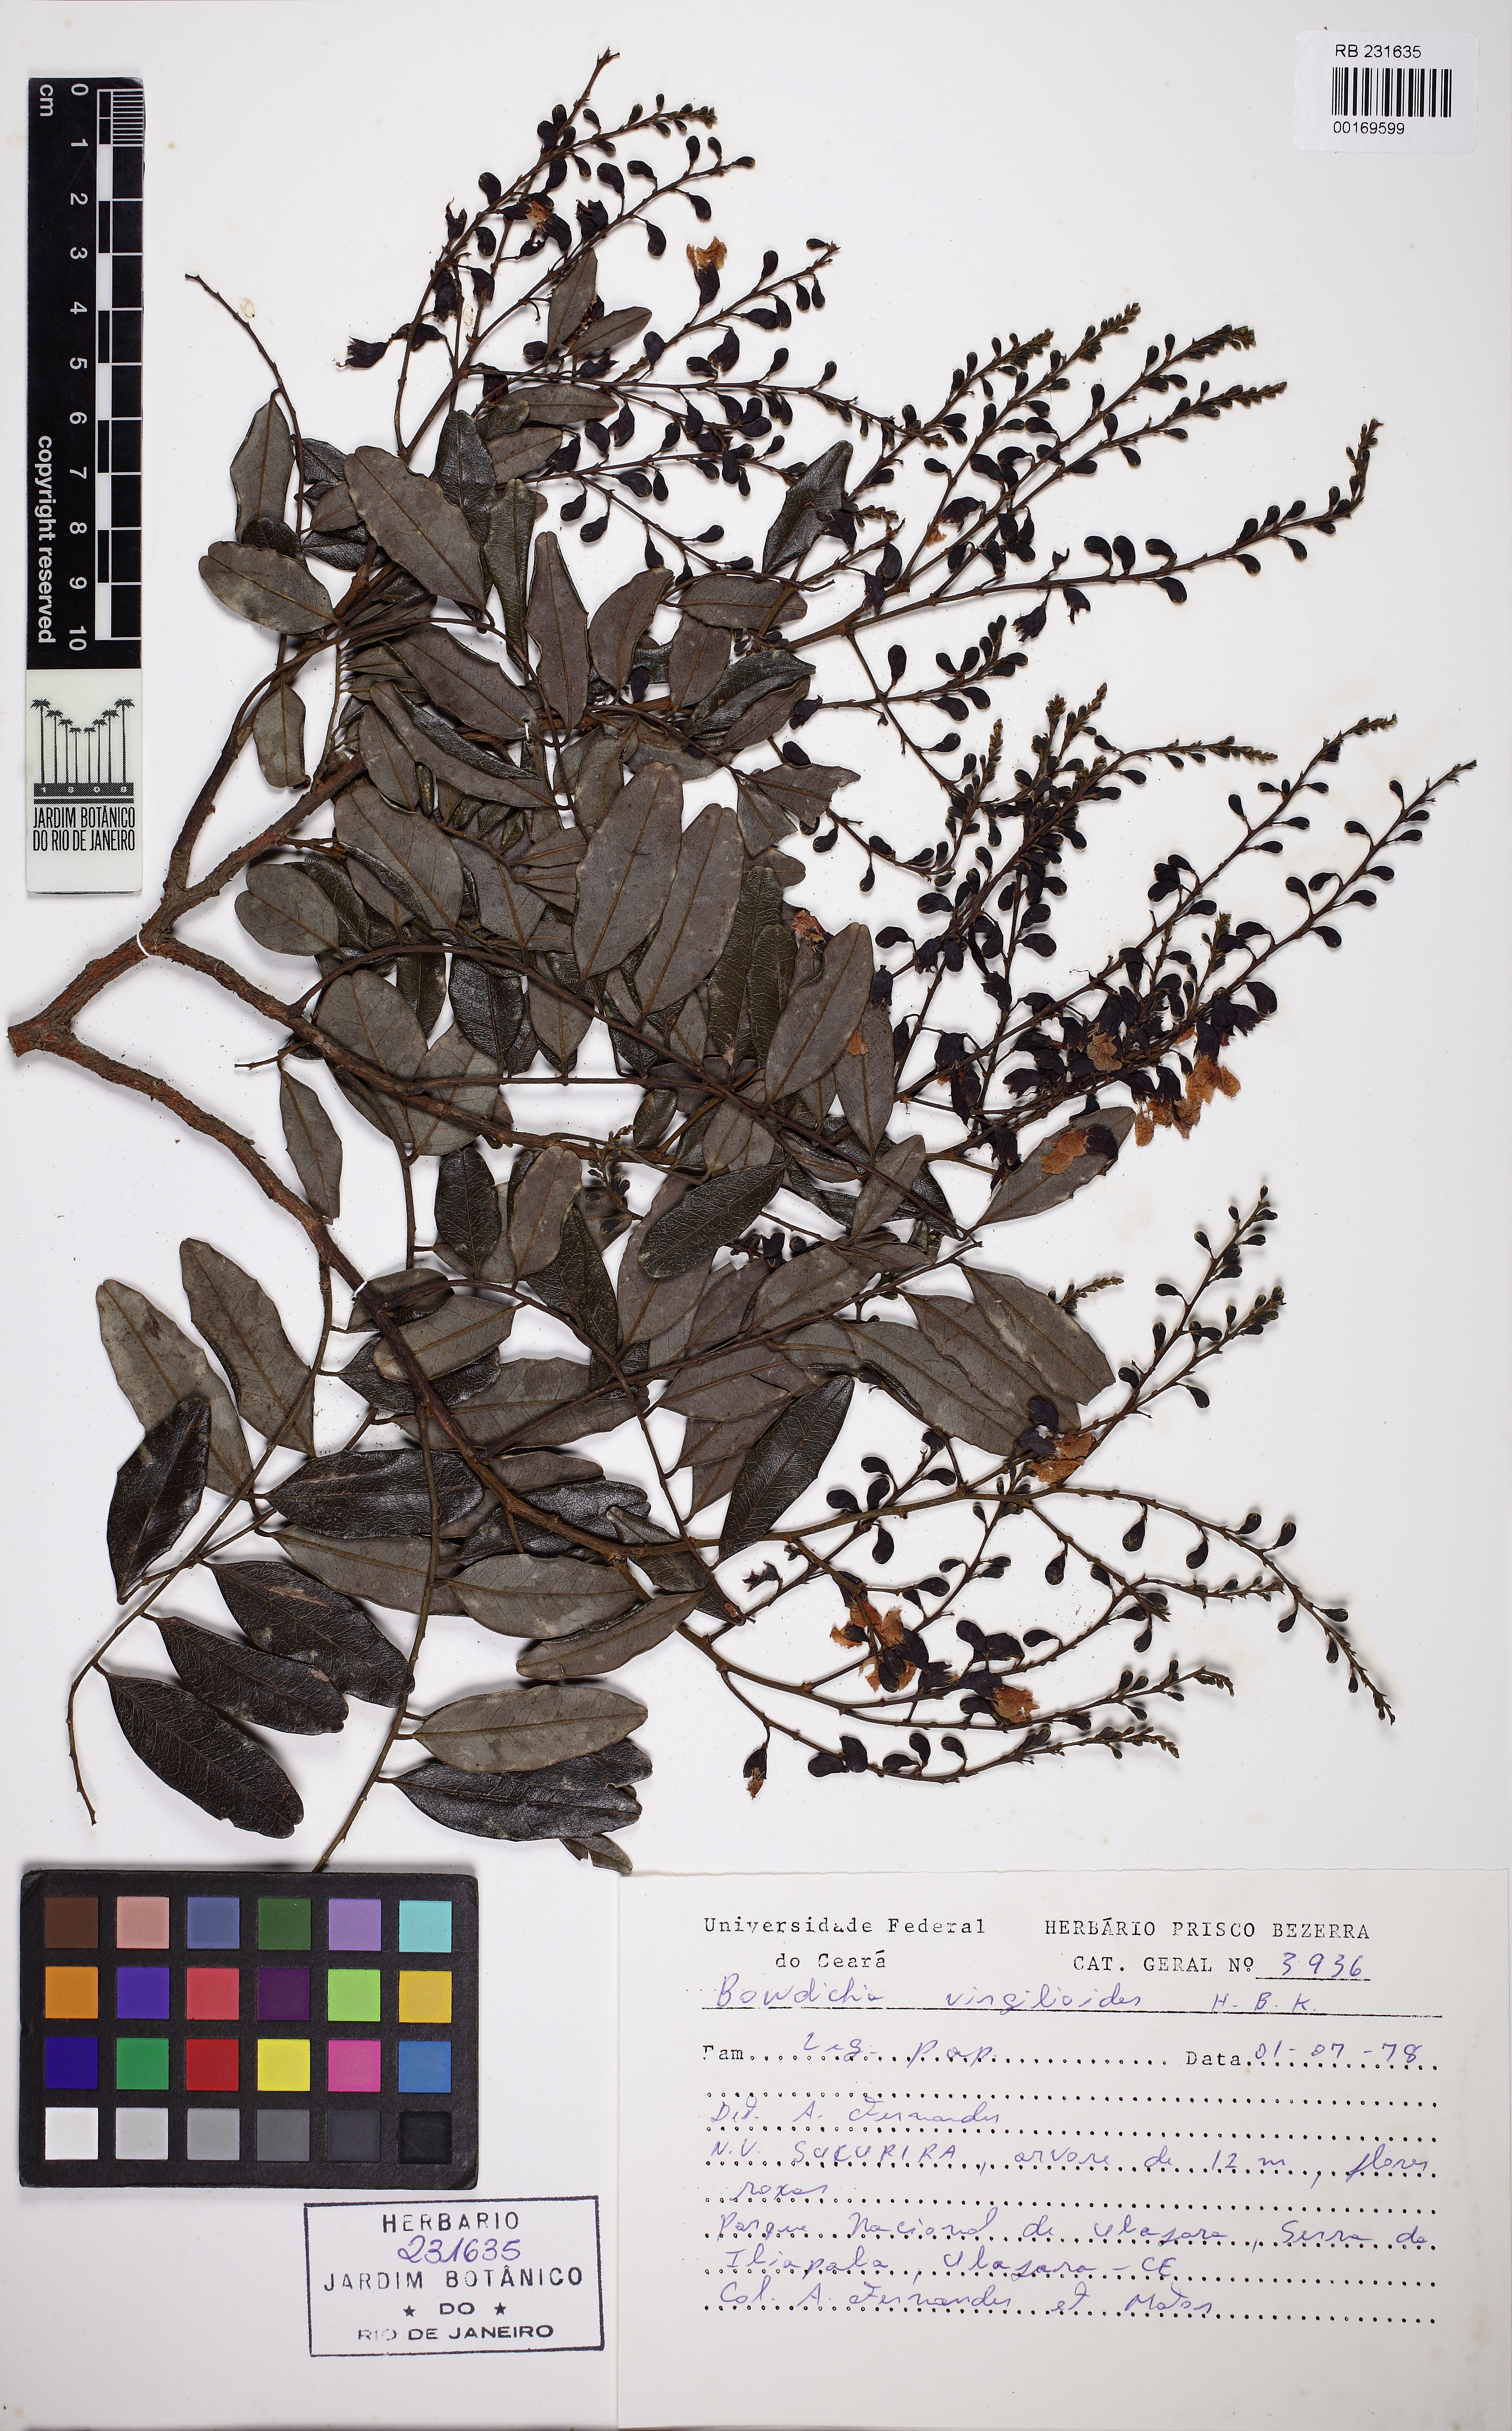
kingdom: Plantae
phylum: Tracheophyta
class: Magnoliopsida
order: Fabales
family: Fabaceae
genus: Bowdichia
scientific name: Bowdichia virgilioides
